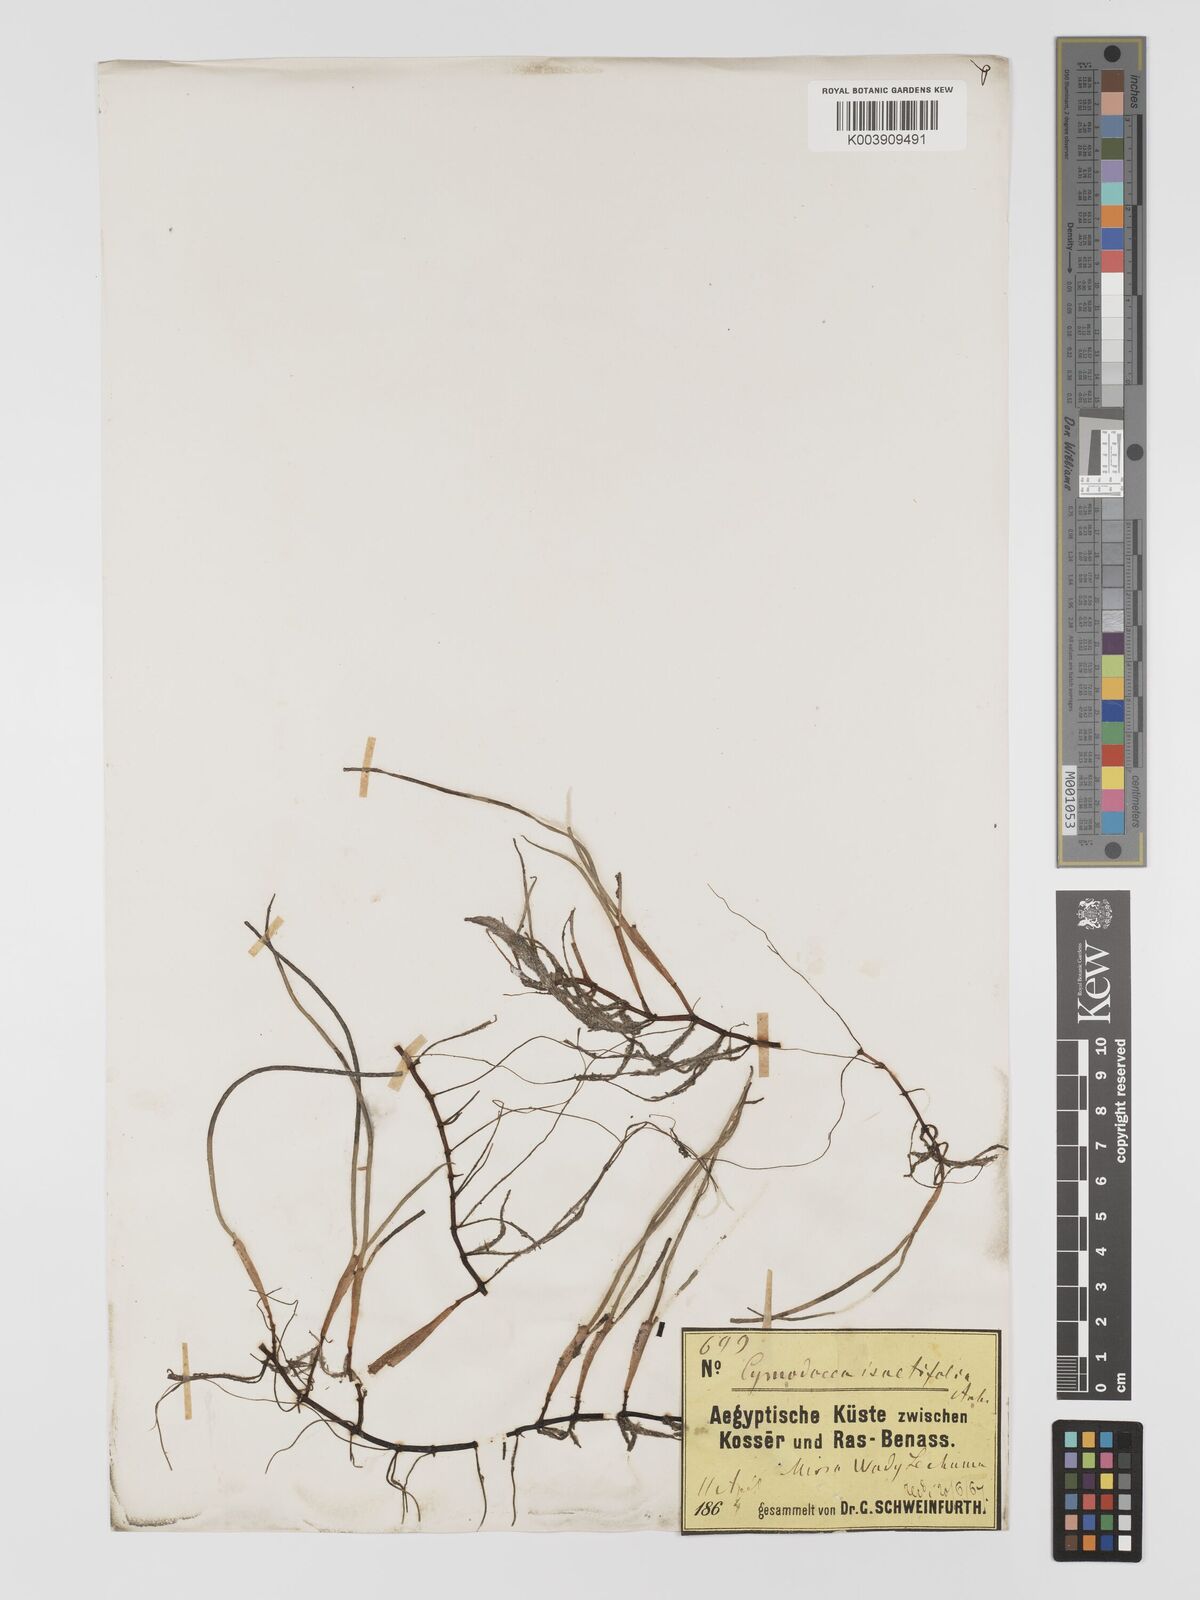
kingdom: Plantae
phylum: Tracheophyta
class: Liliopsida
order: Alismatales
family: Cymodoceaceae
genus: Syringodium
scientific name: Syringodium isoetifolium
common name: Species code: si
